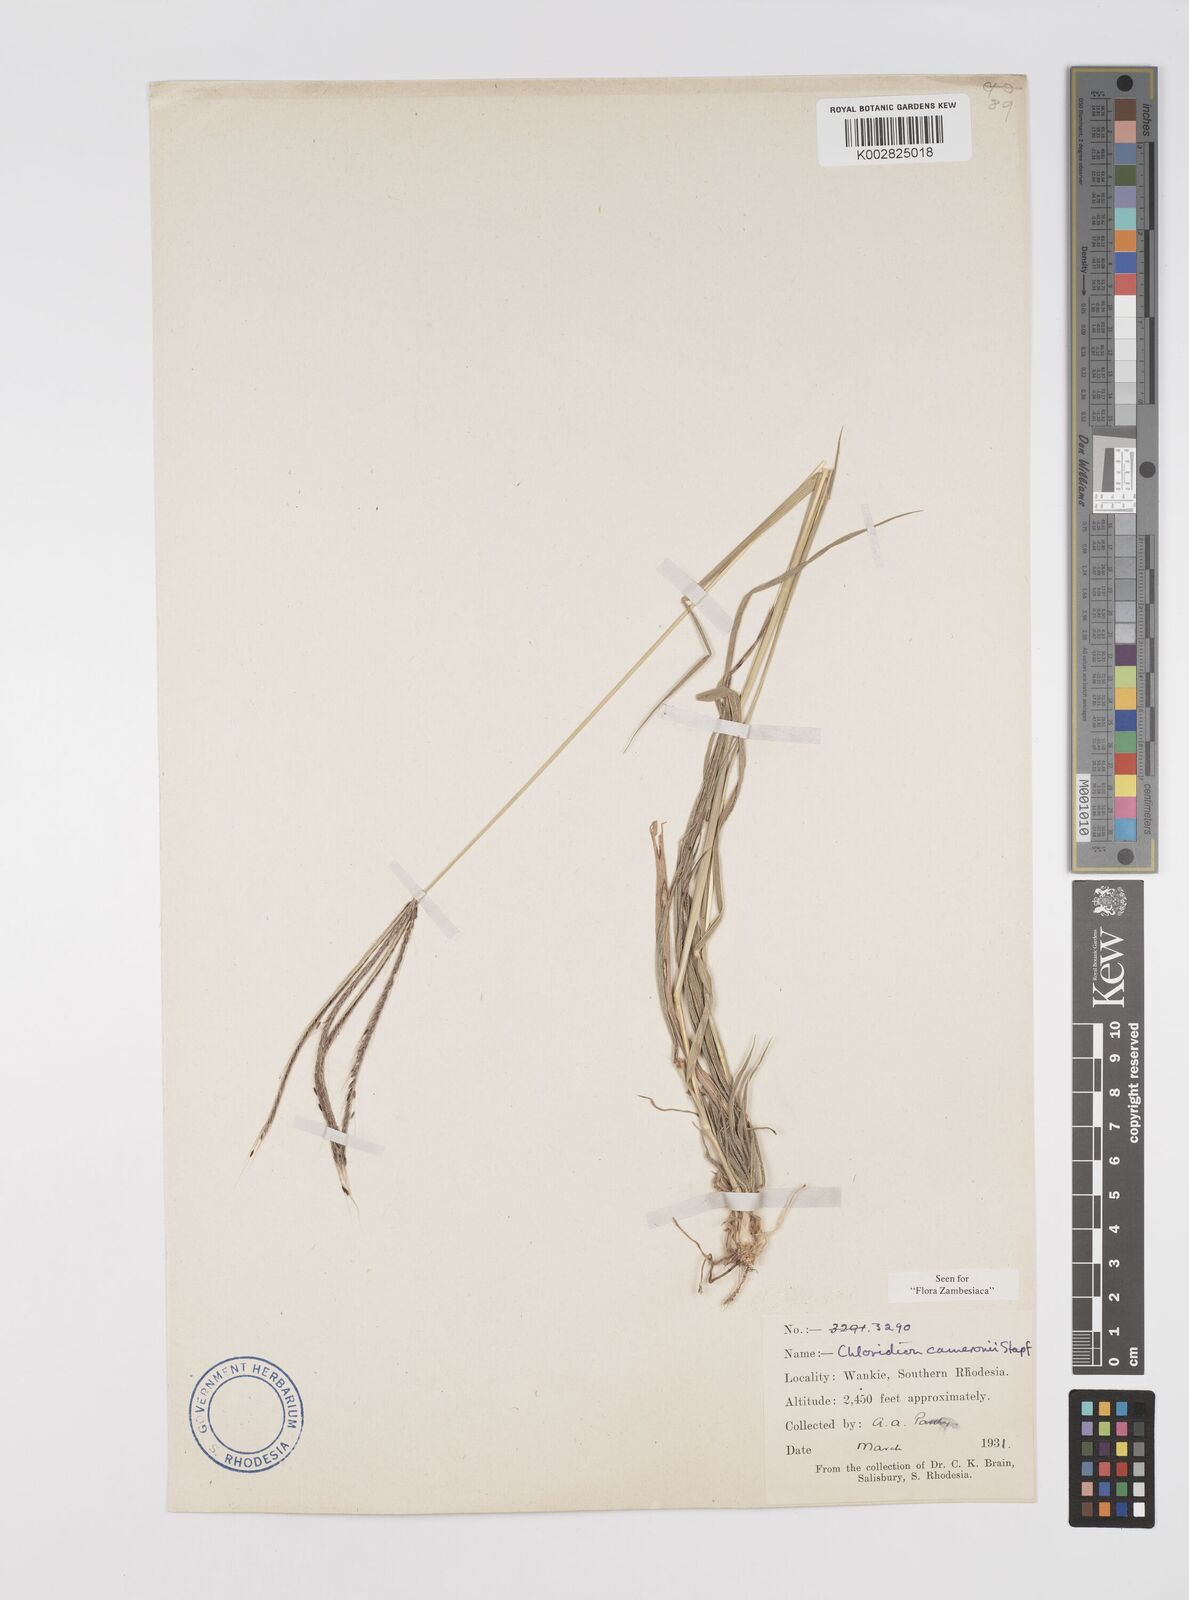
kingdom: Plantae
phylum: Tracheophyta
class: Liliopsida
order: Poales
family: Poaceae
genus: Stereochlaena
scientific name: Stereochlaena cameronii
